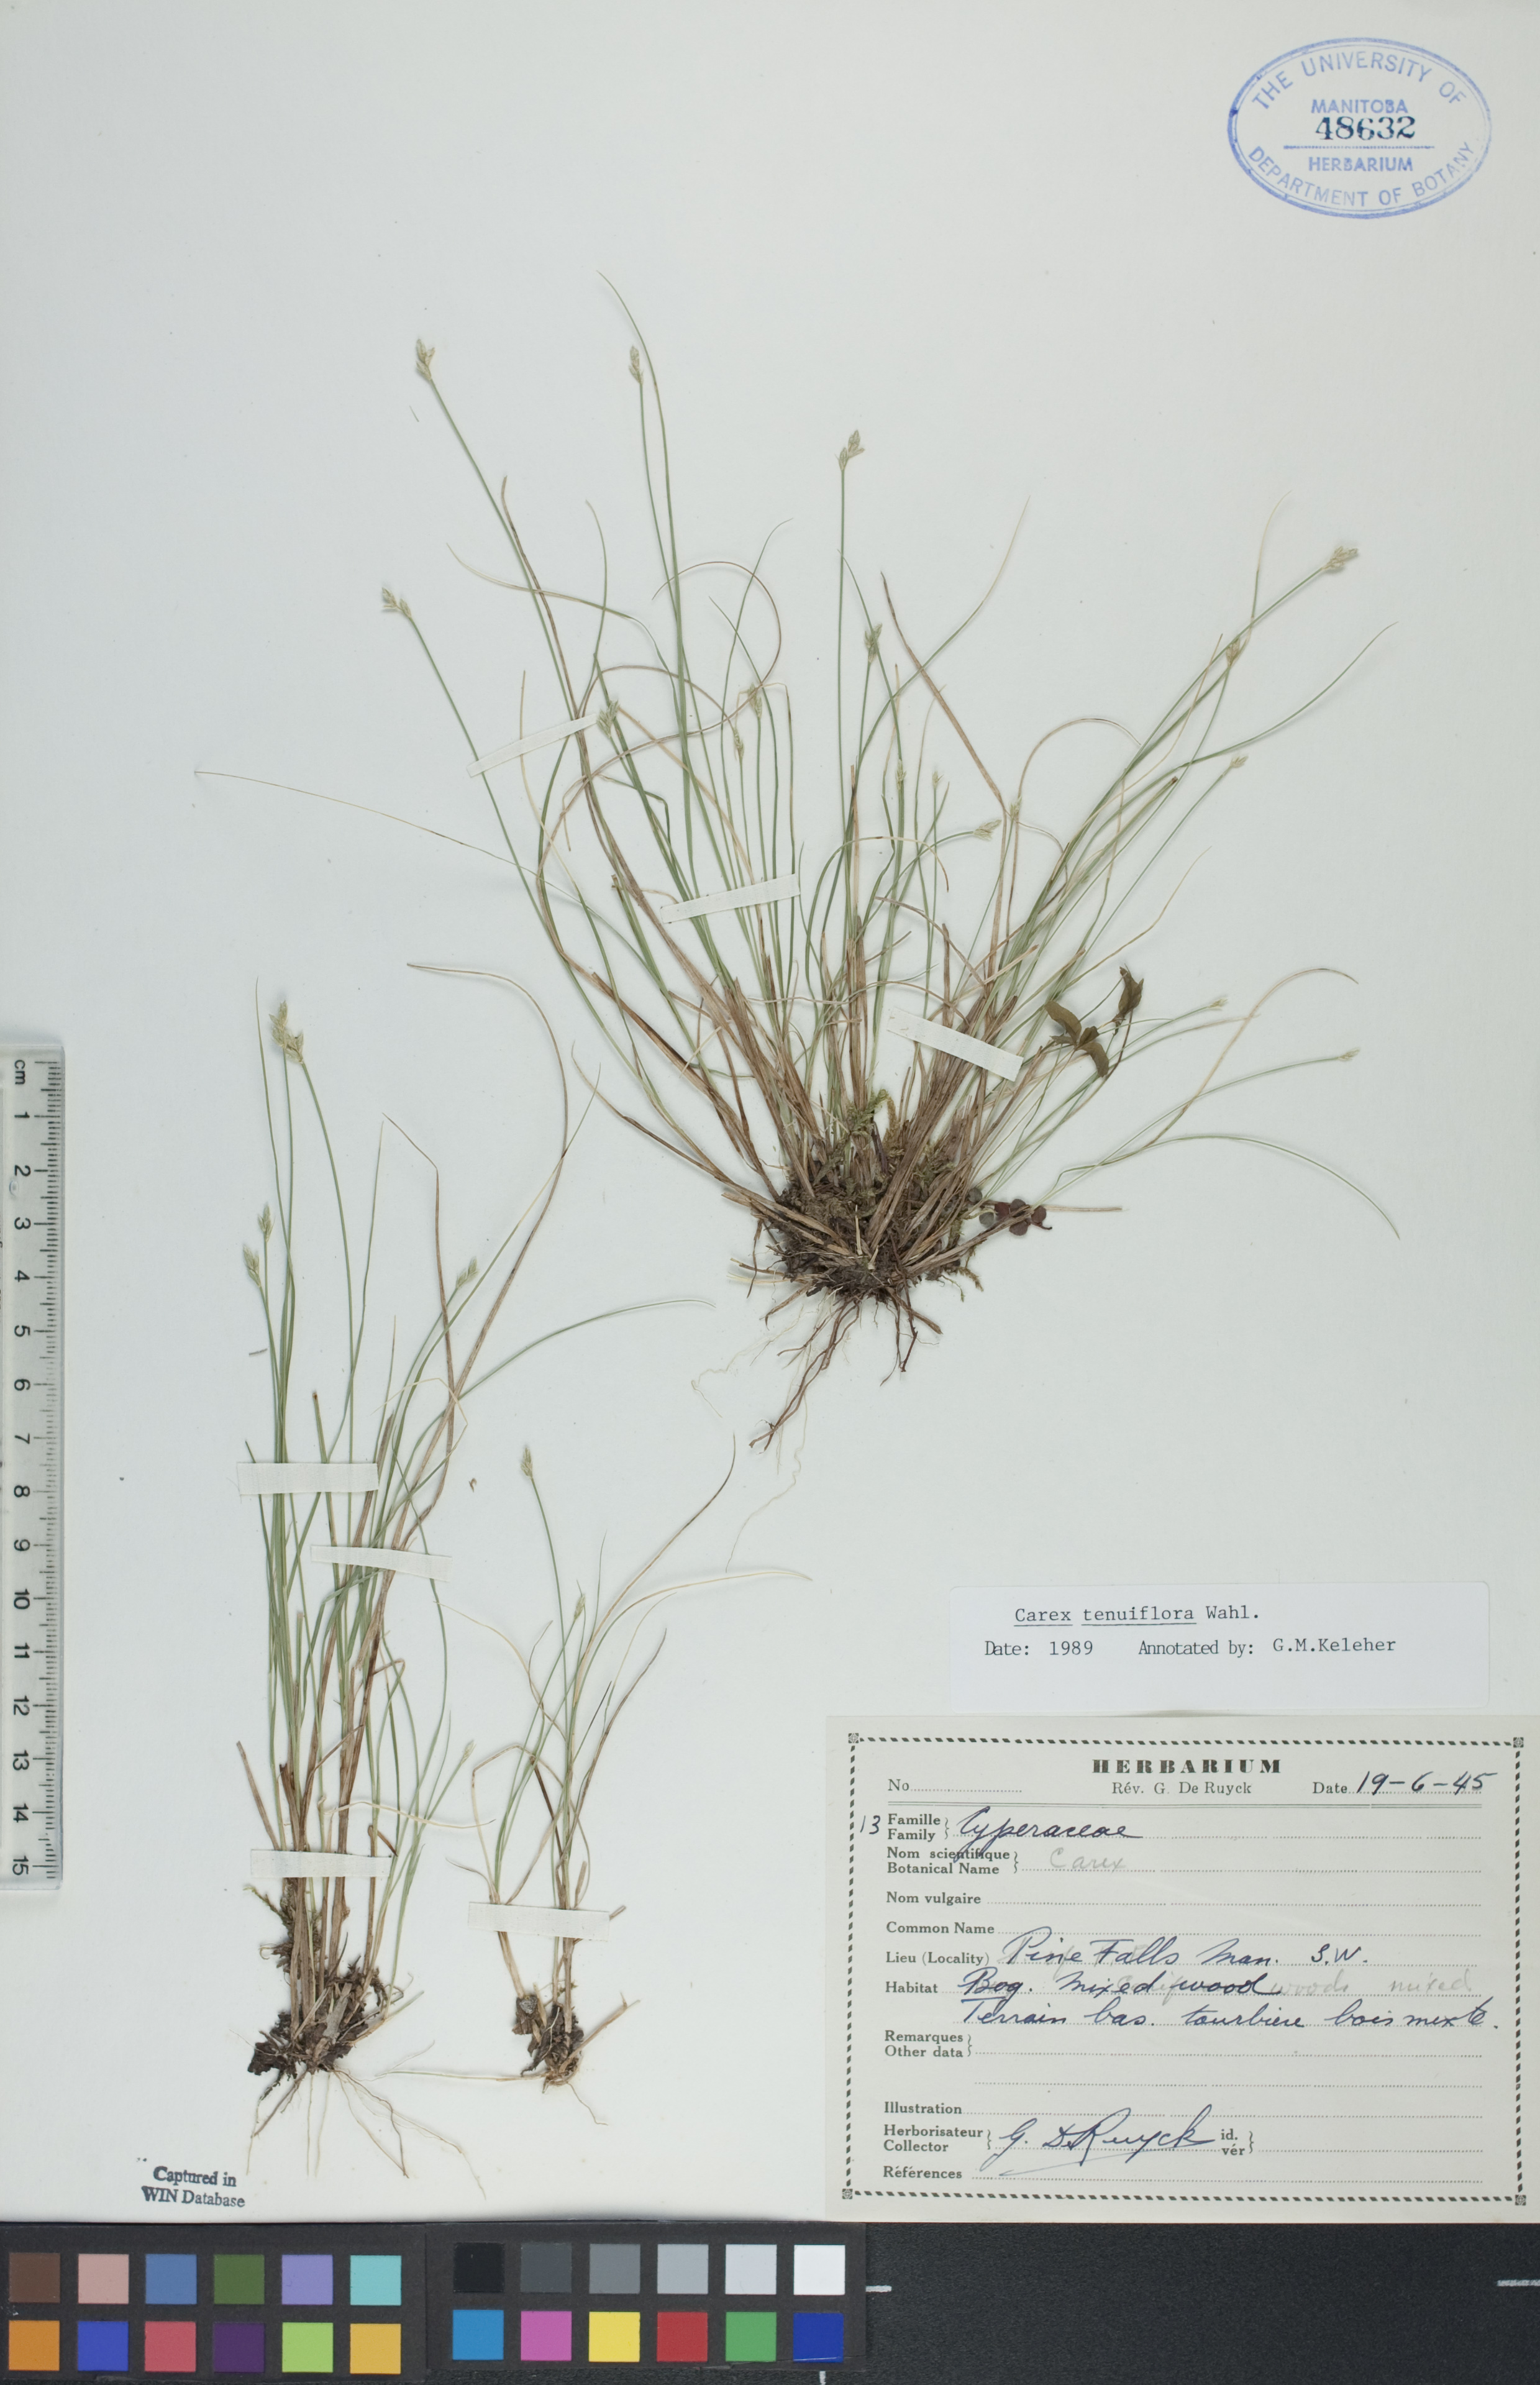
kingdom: Plantae
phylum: Tracheophyta
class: Liliopsida
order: Poales
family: Cyperaceae
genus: Carex
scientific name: Carex tenera
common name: Broad-fruited sedge
